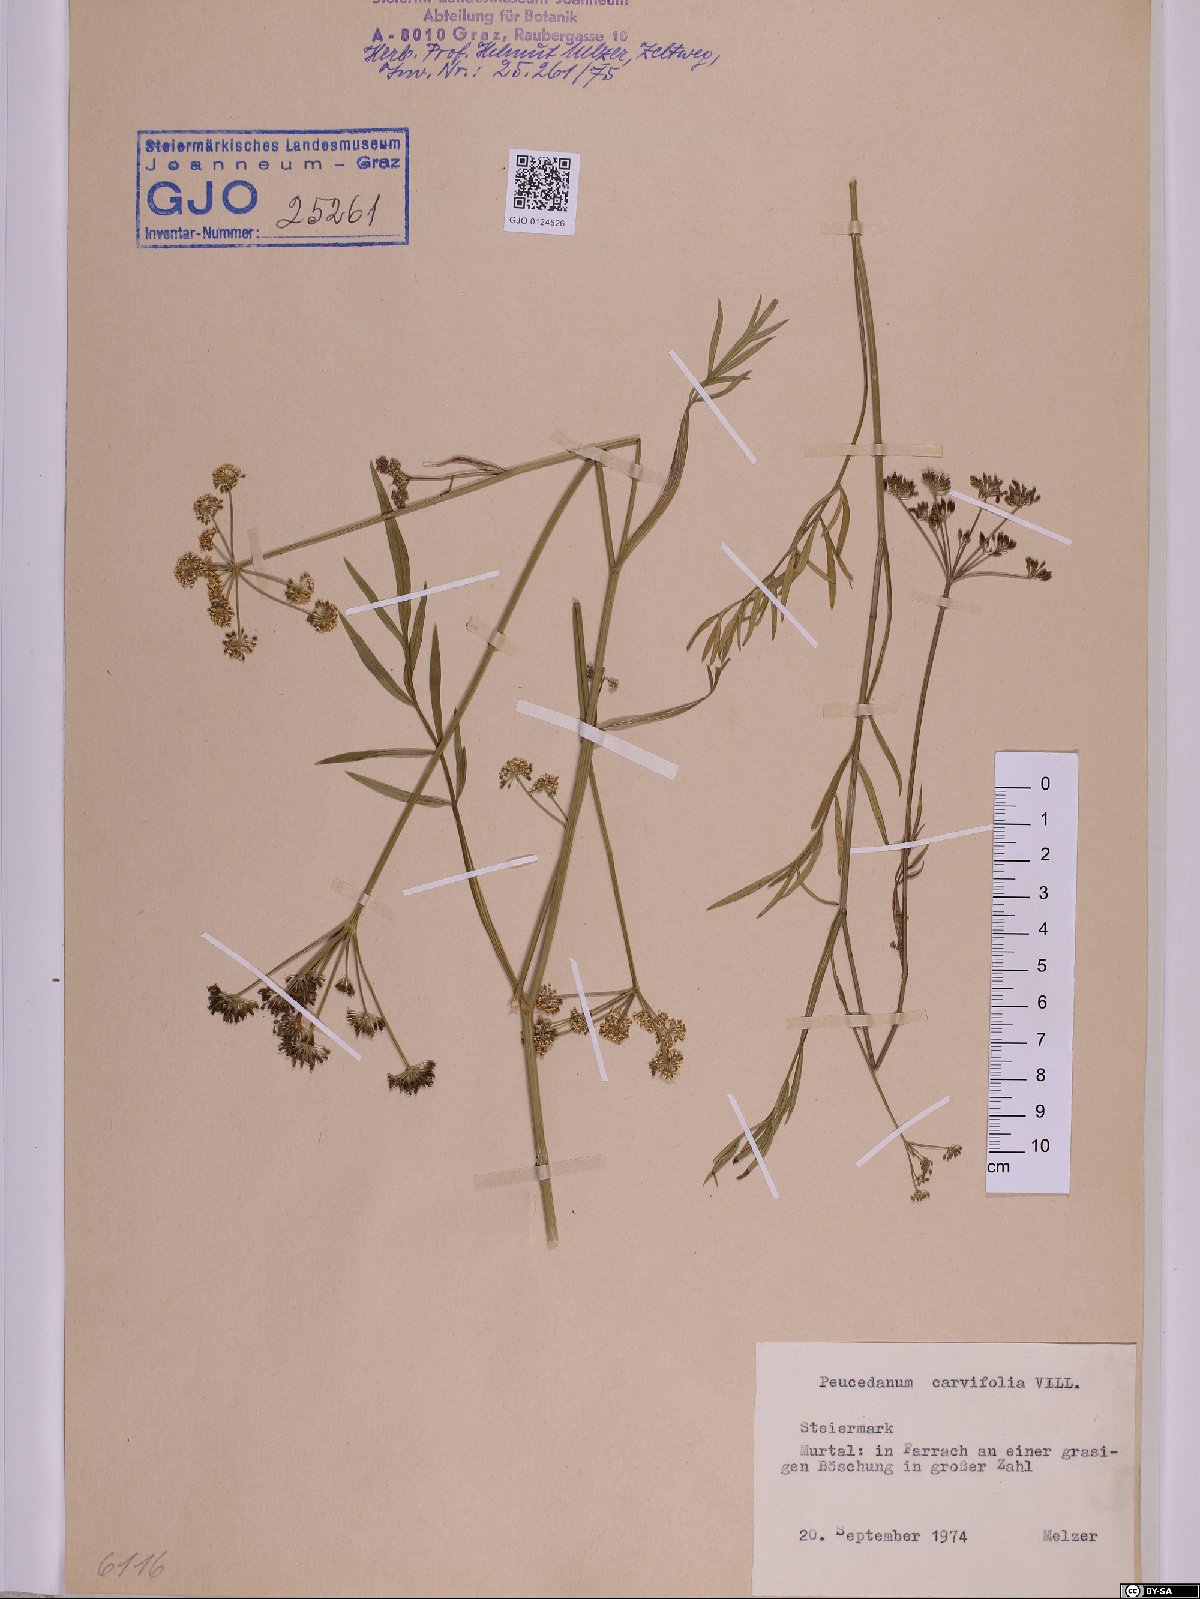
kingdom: Plantae
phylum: Tracheophyta
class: Magnoliopsida
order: Apiales
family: Apiaceae
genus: Dichoropetalum
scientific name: Dichoropetalum carvifolia
